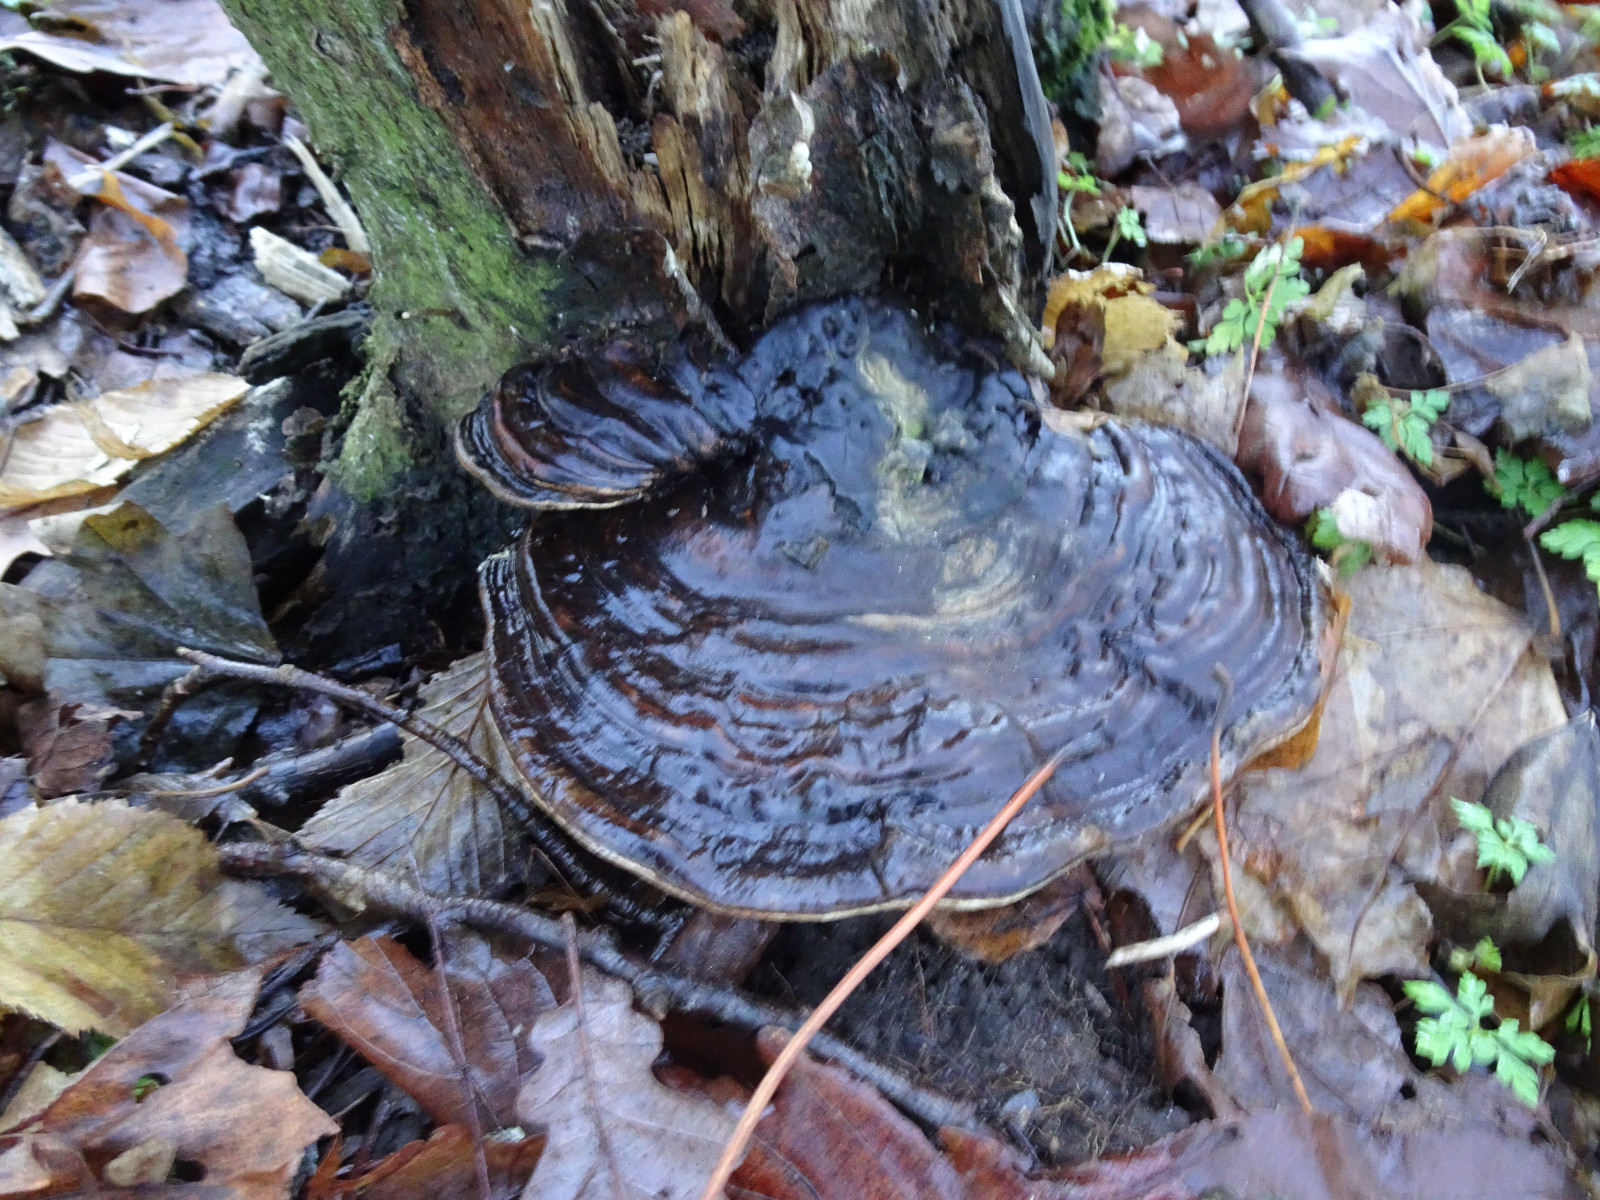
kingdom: Fungi
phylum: Basidiomycota
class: Agaricomycetes
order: Polyporales
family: Polyporaceae
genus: Ganoderma
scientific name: Ganoderma applanatum
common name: flad lakporesvamp
